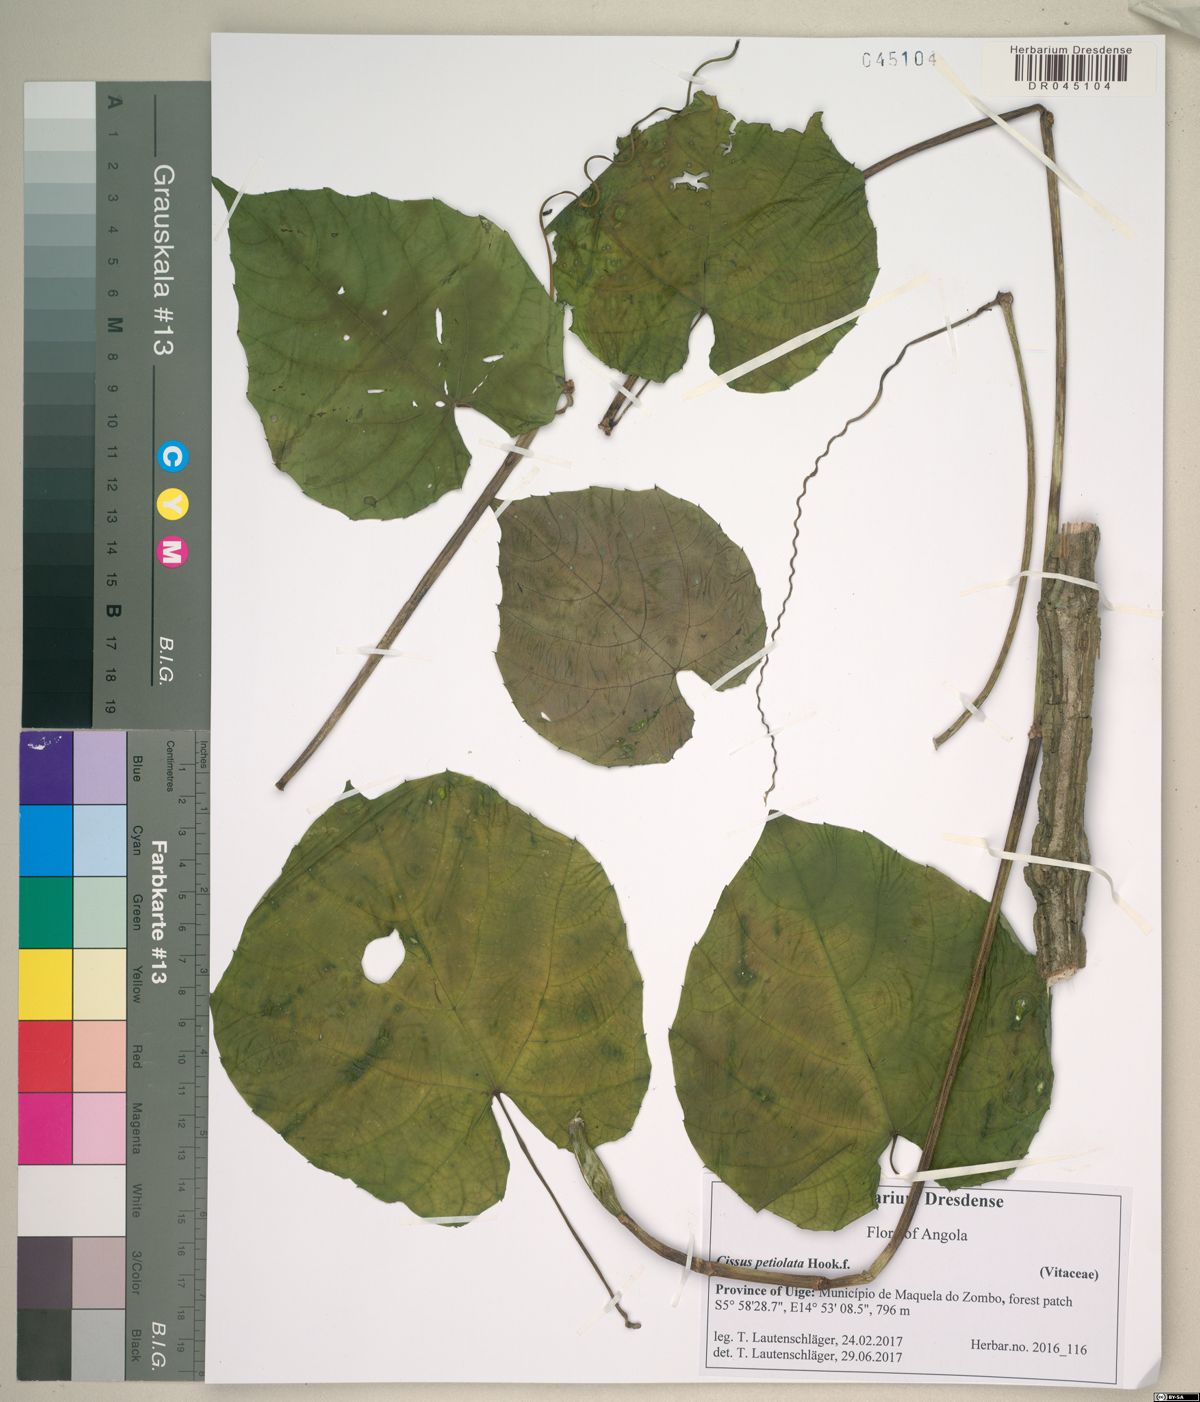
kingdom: Plantae
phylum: Tracheophyta
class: Magnoliopsida
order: Vitales
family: Vitaceae
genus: Cissus
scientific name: Cissus petiolata
